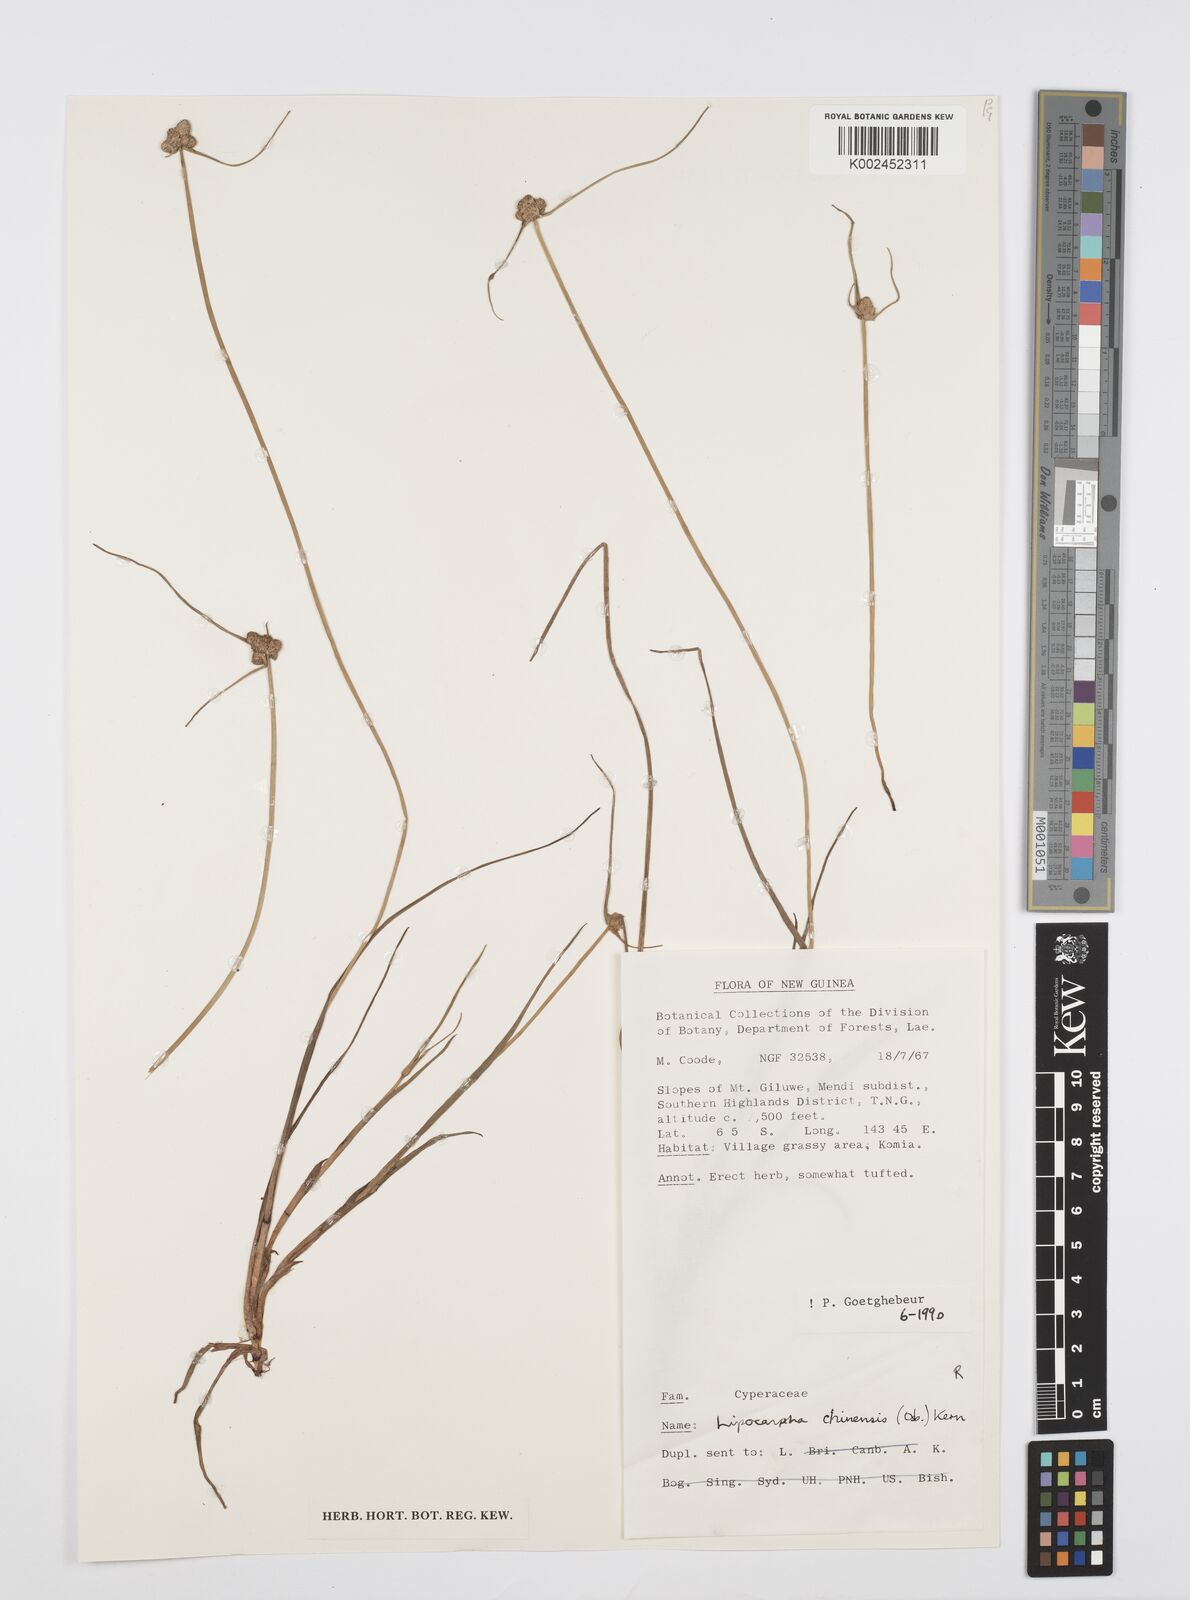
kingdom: Plantae
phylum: Tracheophyta
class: Liliopsida
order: Poales
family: Cyperaceae
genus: Cyperus
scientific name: Cyperus
